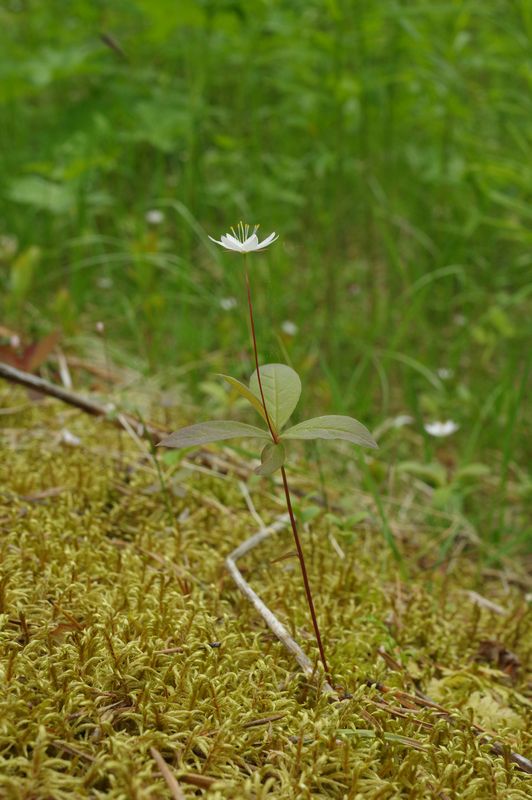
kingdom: Plantae
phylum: Tracheophyta
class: Magnoliopsida
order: Ericales
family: Primulaceae
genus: Lysimachia
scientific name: Lysimachia europaea
